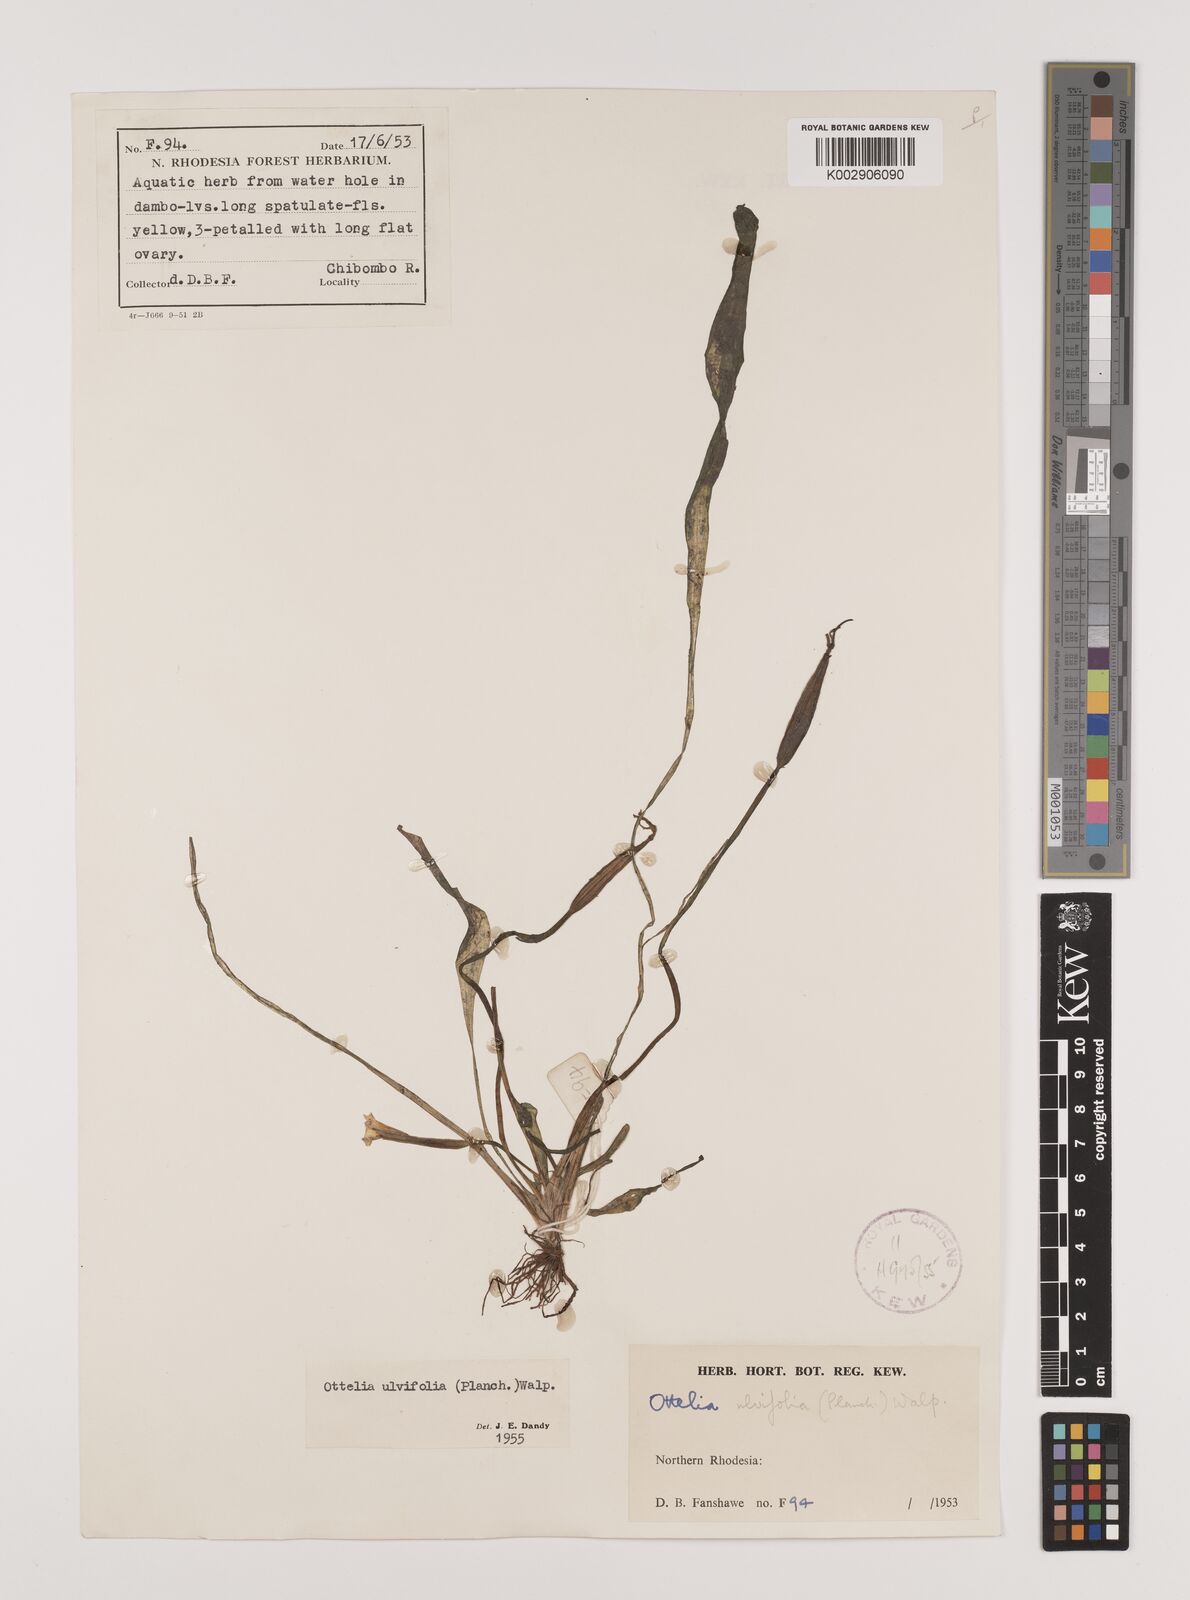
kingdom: Plantae
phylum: Tracheophyta
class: Liliopsida
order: Alismatales
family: Hydrocharitaceae
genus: Ottelia
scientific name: Ottelia ulvifolia
